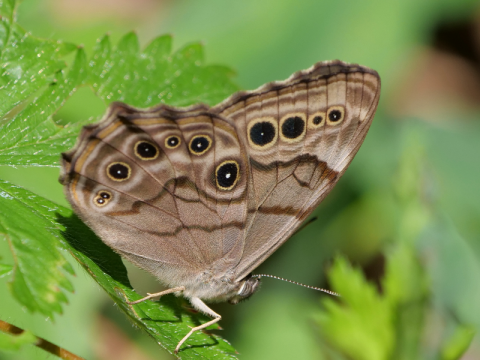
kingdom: Animalia
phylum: Arthropoda
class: Insecta
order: Lepidoptera
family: Nymphalidae
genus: Lethe
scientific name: Lethe anthedon
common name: Northern Pearly-Eye
